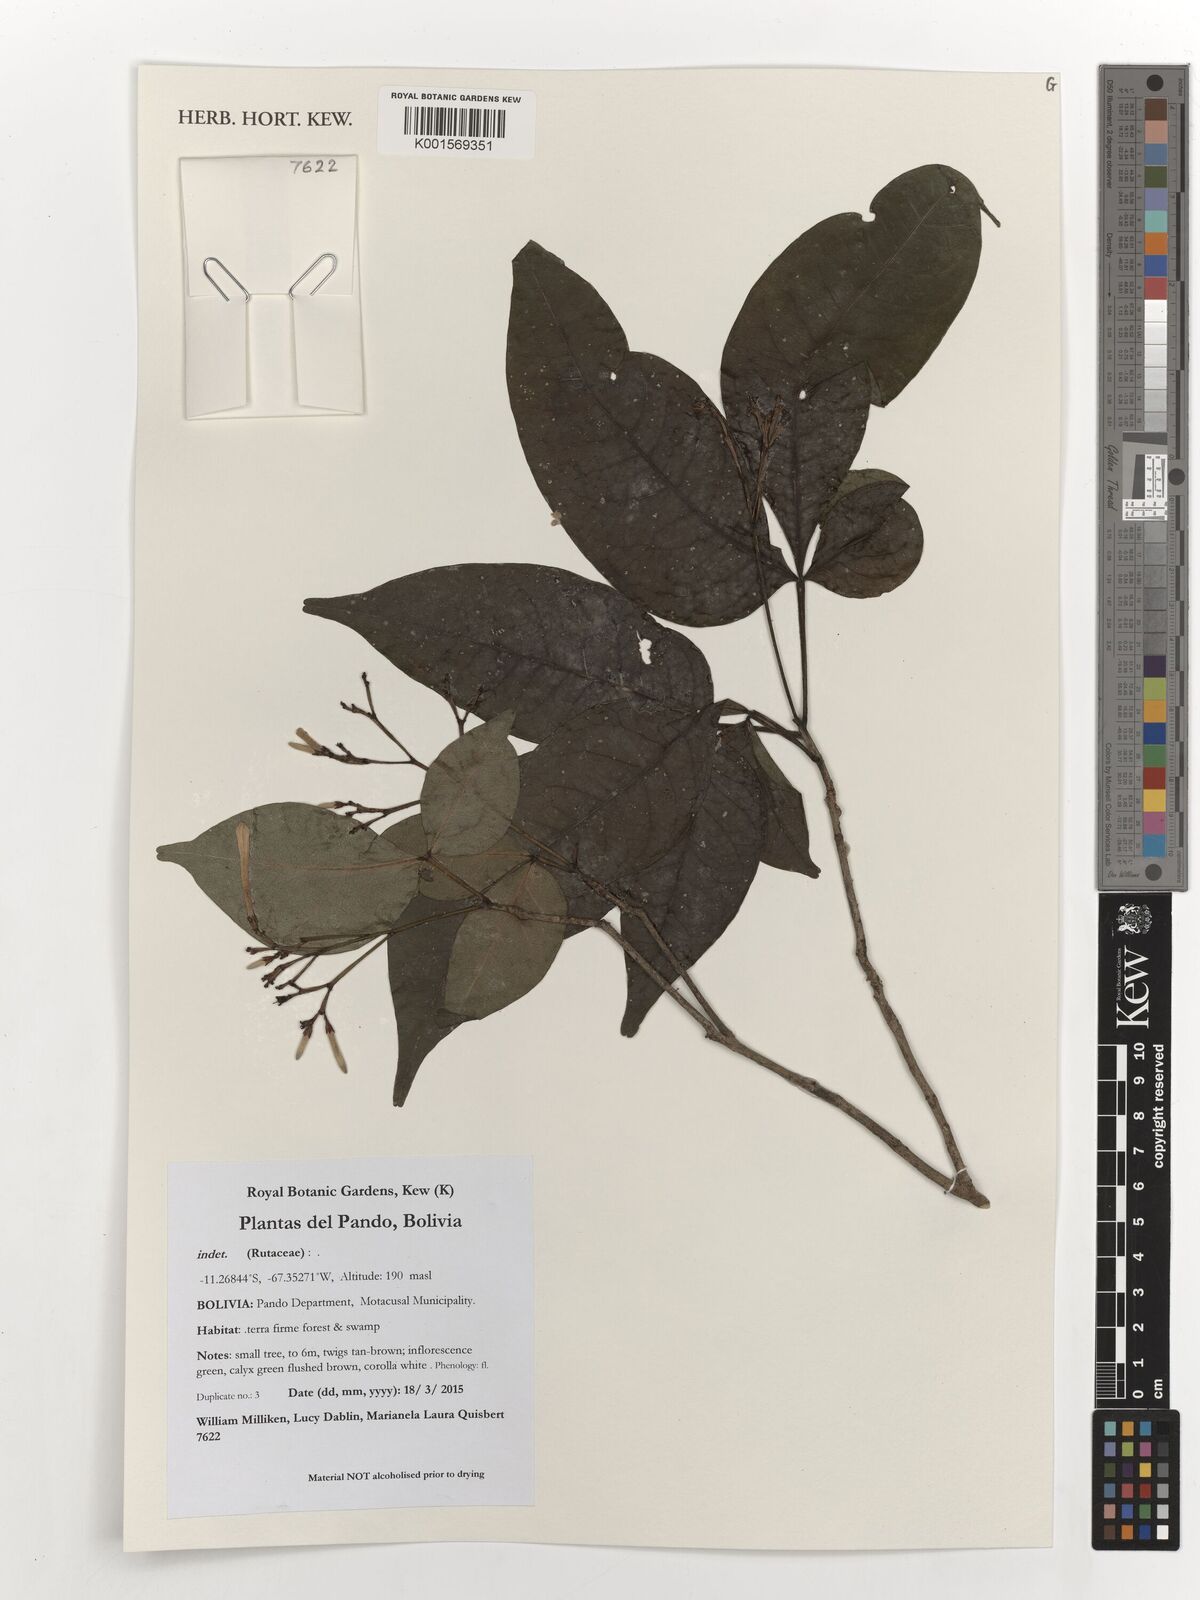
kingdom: Plantae
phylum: Tracheophyta
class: Magnoliopsida
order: Sapindales
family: Rutaceae
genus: Galipea
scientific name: Galipea trifoliata
